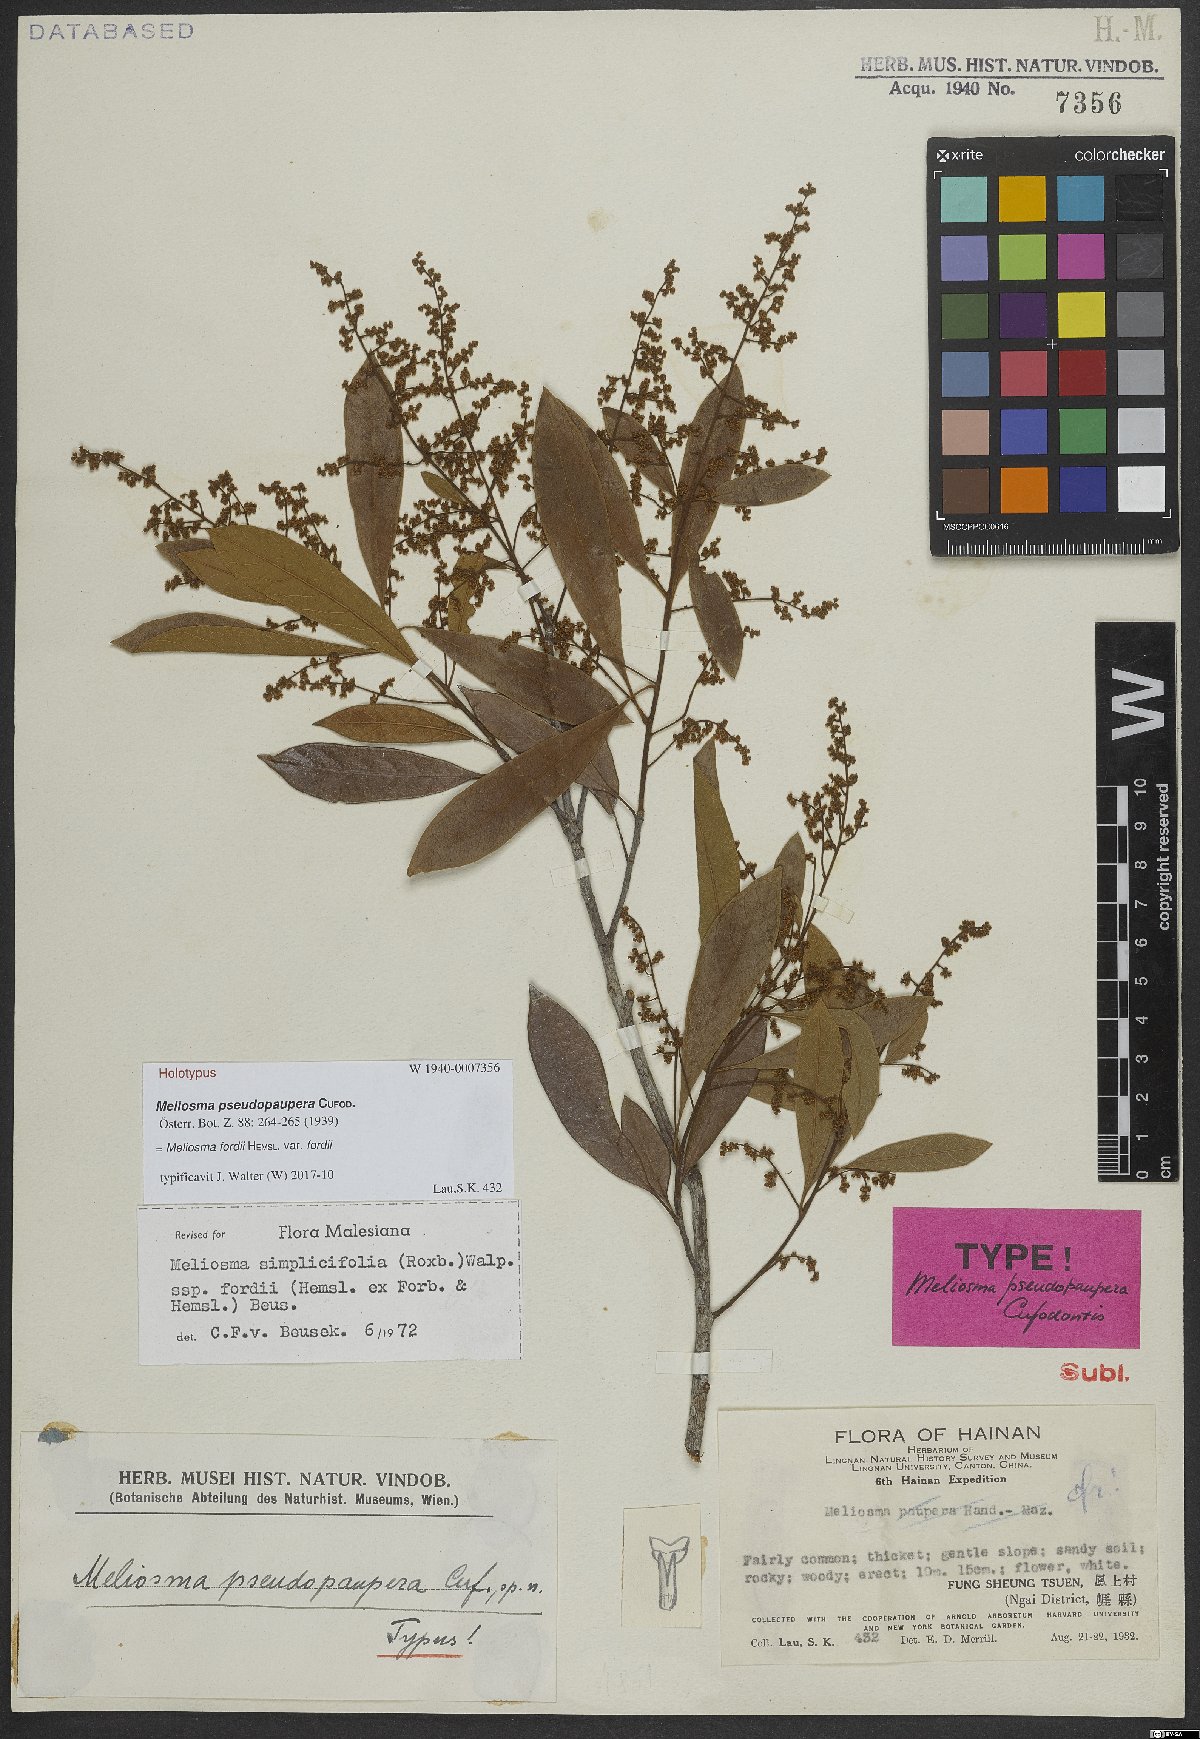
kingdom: Plantae
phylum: Tracheophyta
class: Magnoliopsida
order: Proteales
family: Sabiaceae
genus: Meliosma
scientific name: Meliosma fordii
